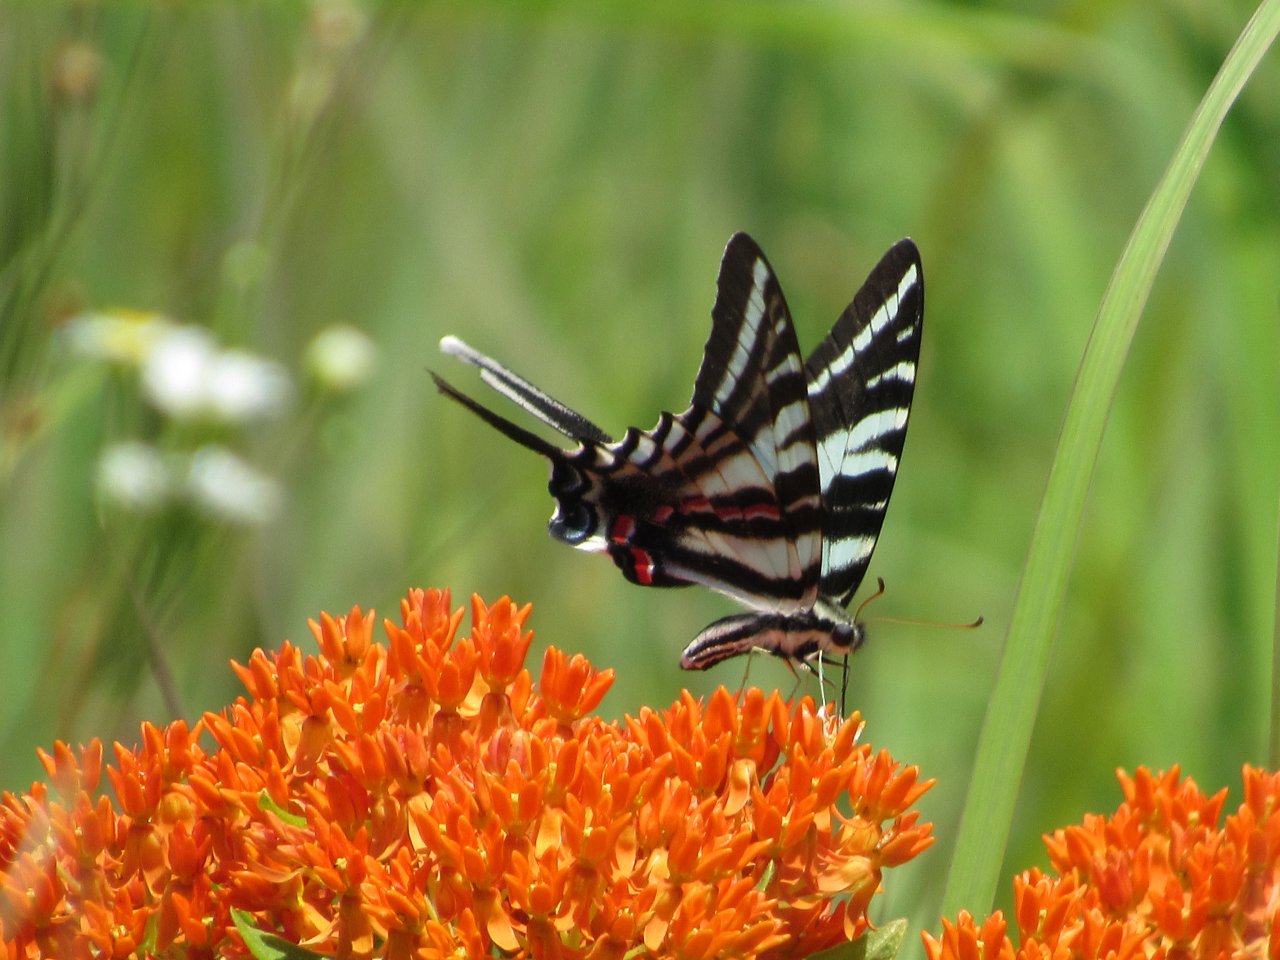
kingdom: Animalia
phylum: Arthropoda
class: Insecta
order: Lepidoptera
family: Papilionidae
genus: Protographium
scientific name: Protographium marcellus
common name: Zebra Swallowtail
